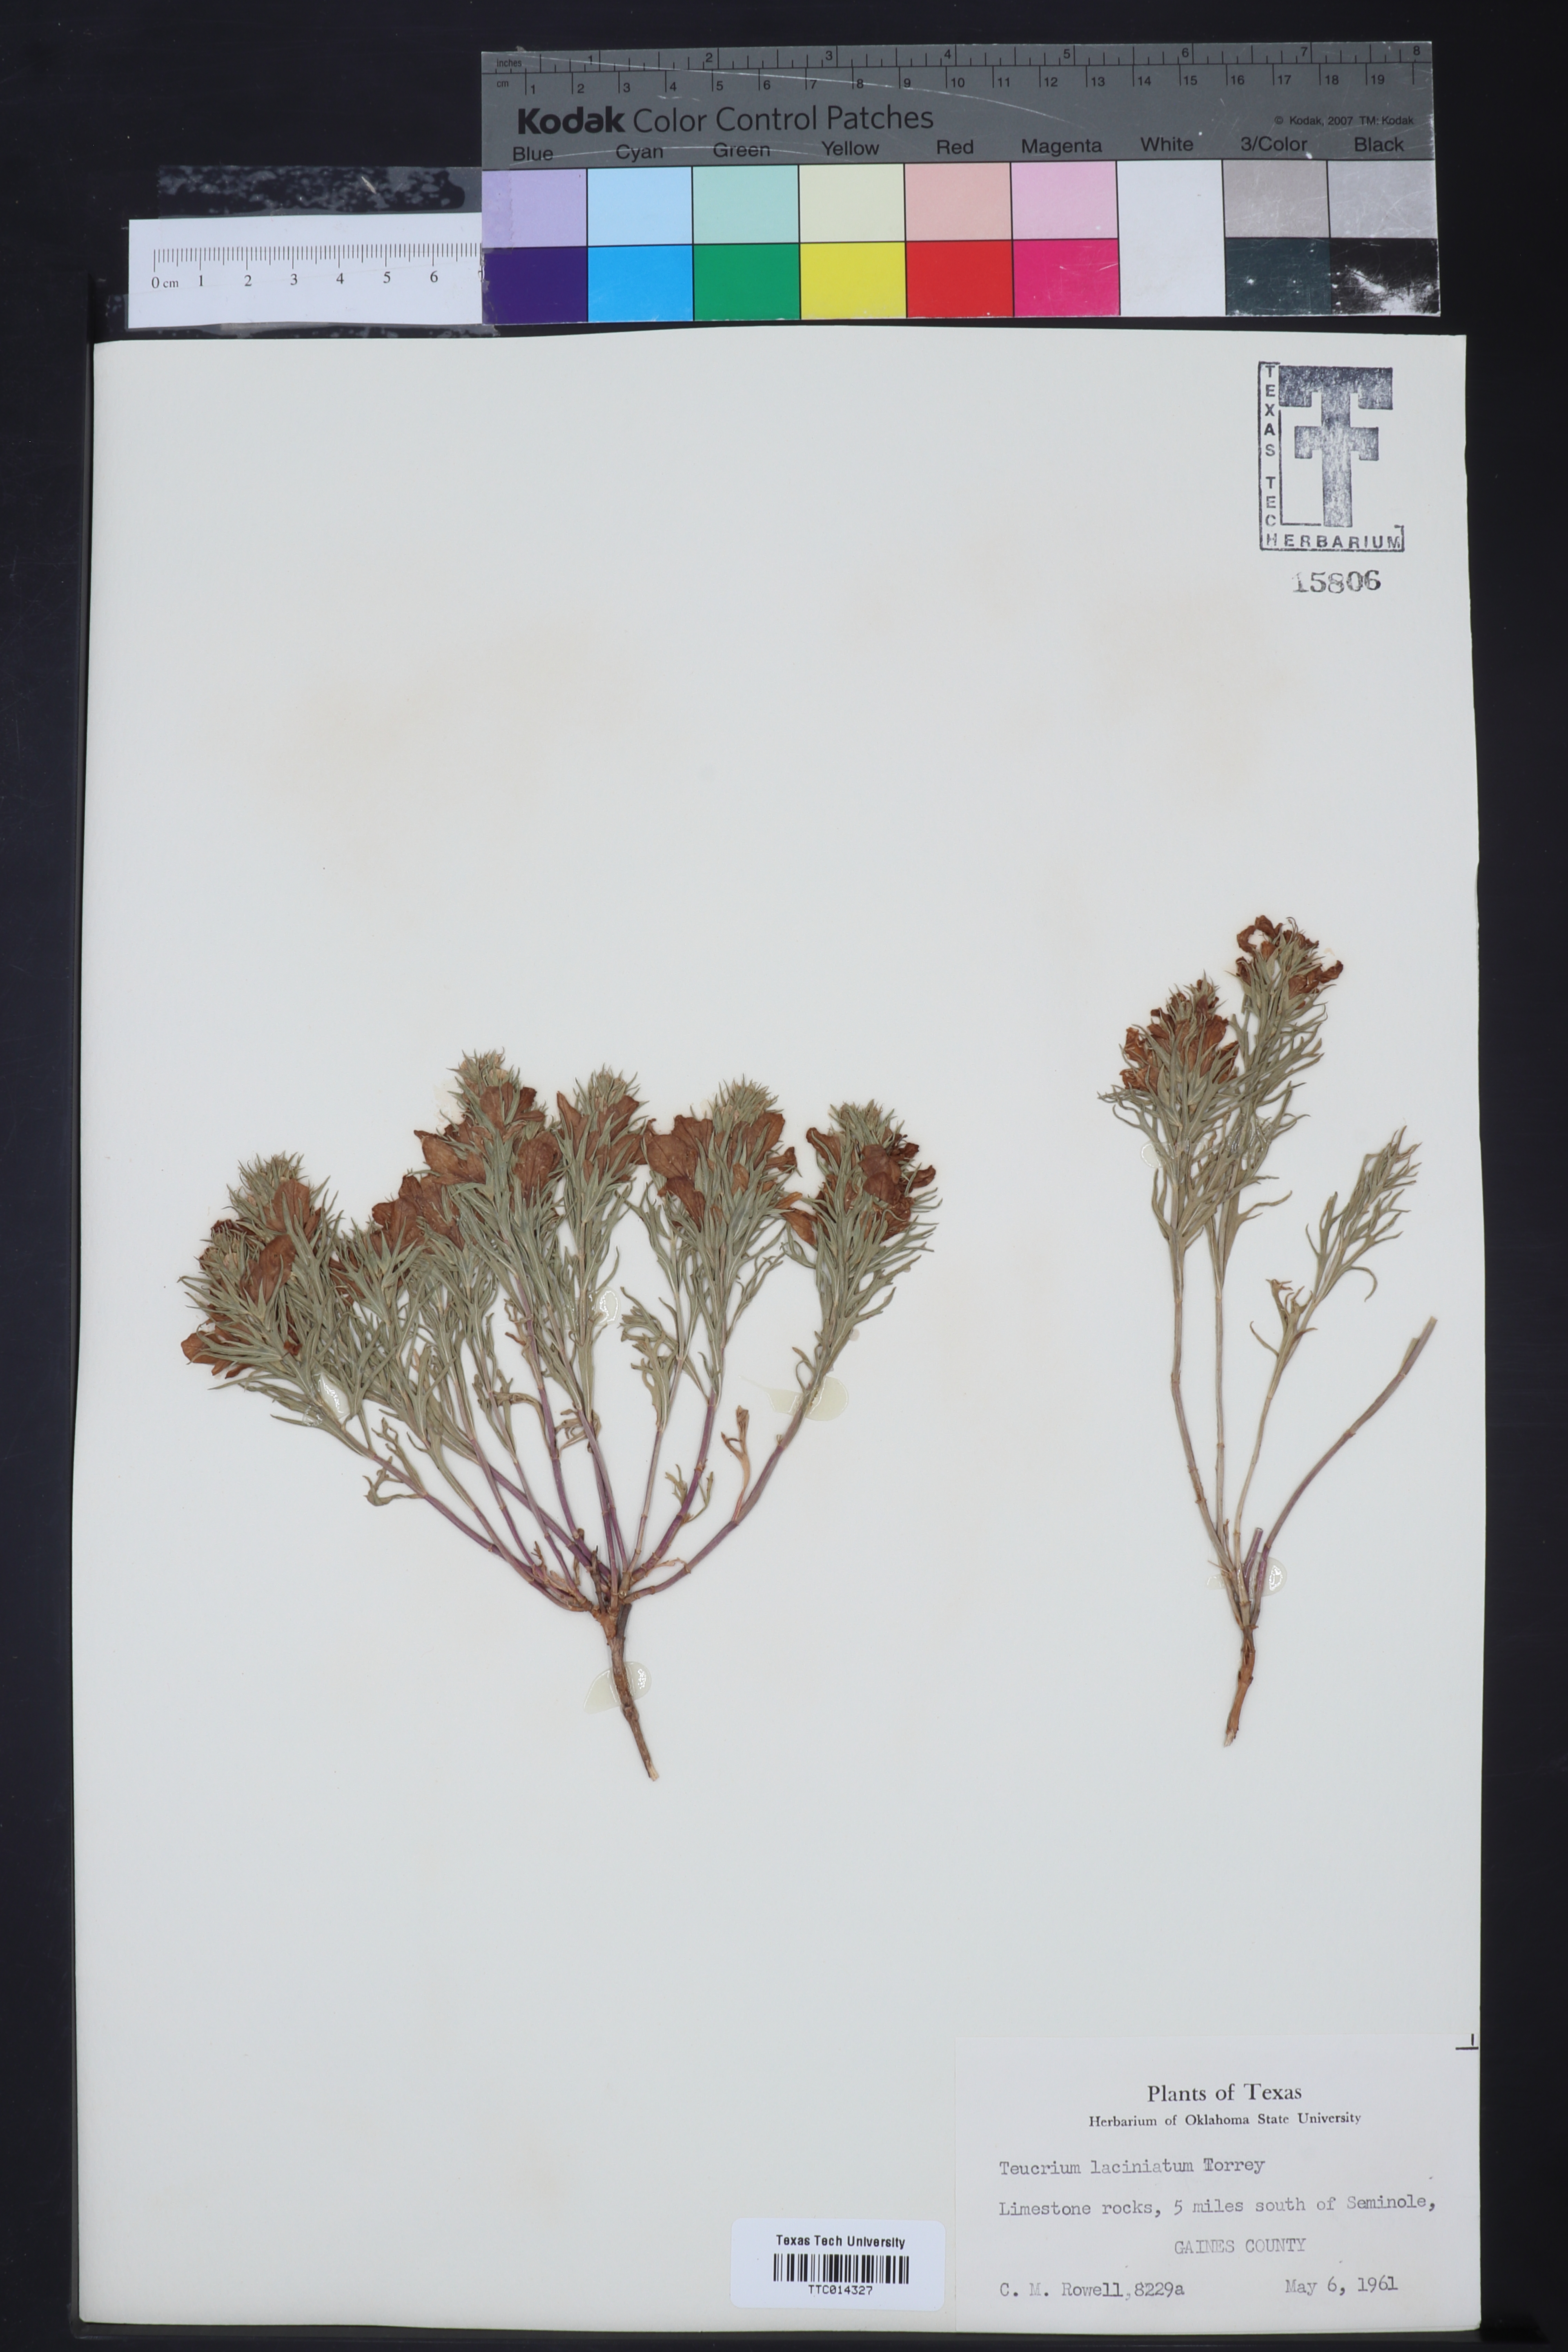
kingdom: Plantae
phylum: Tracheophyta
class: Magnoliopsida
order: Lamiales
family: Lamiaceae
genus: Teucrium
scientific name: Teucrium laciniatum
